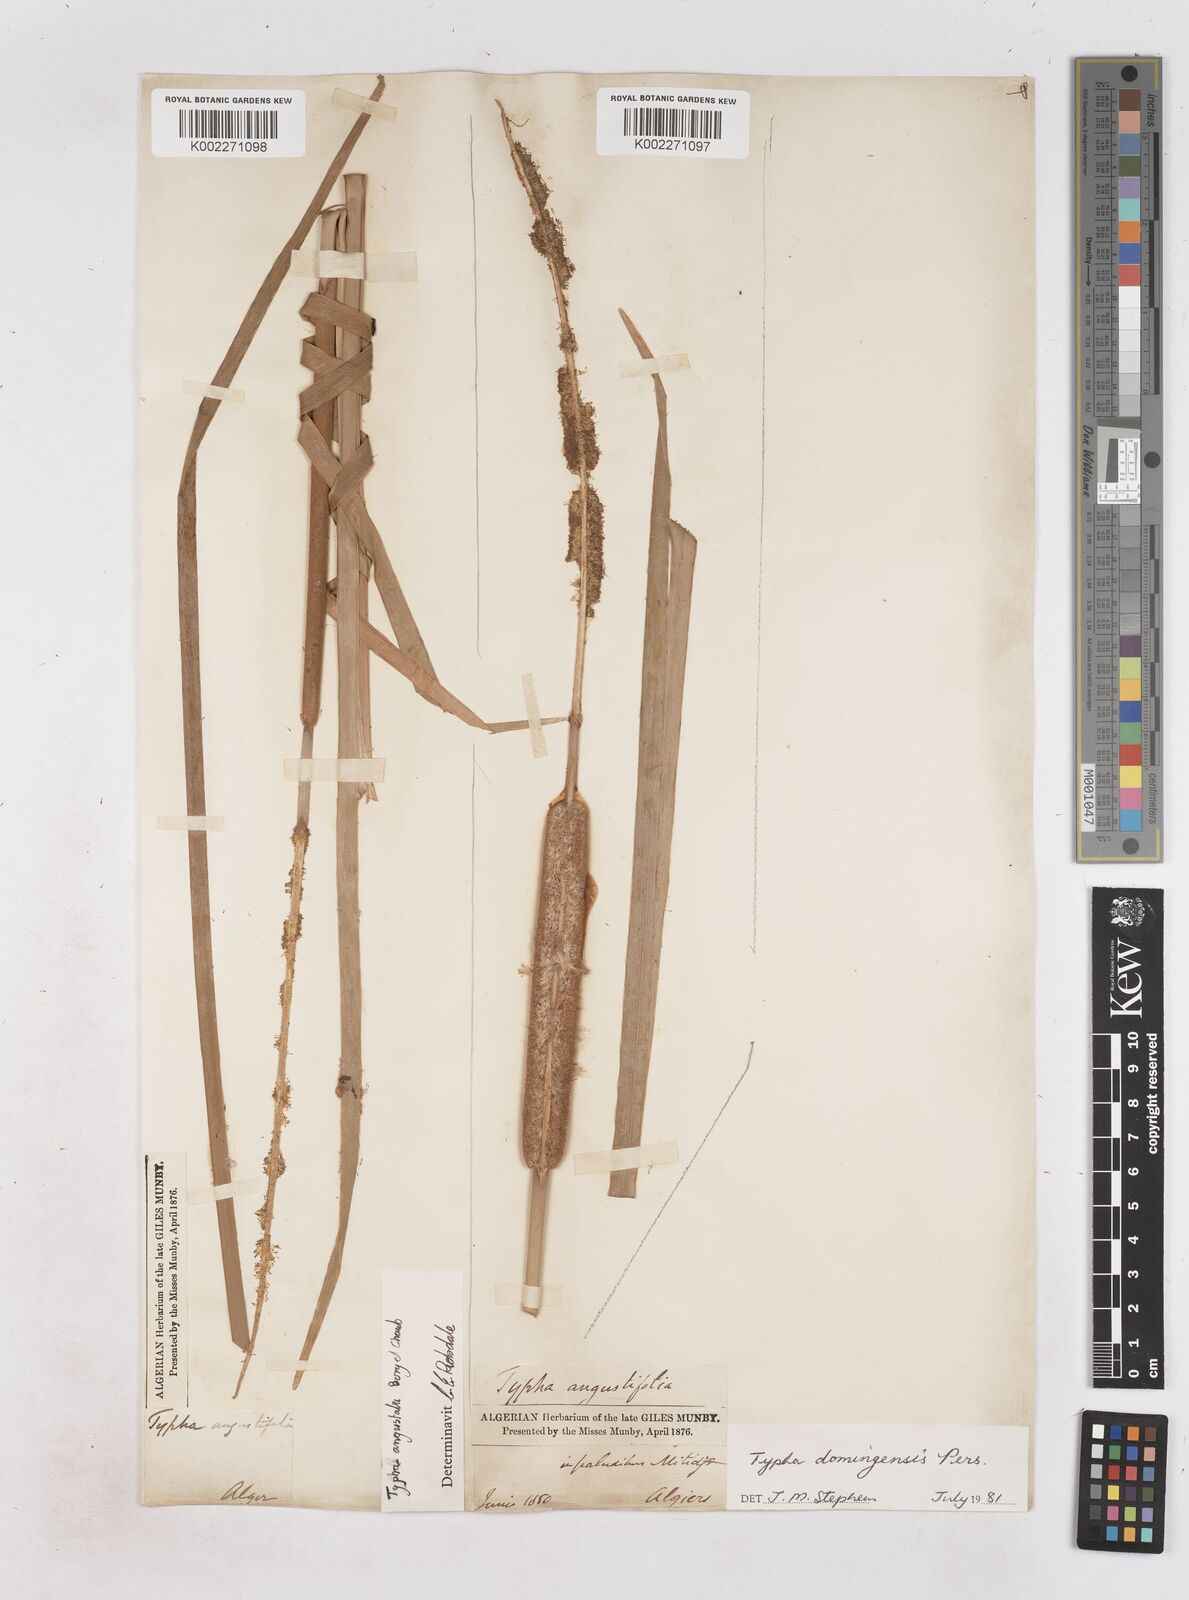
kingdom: Plantae
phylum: Tracheophyta
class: Liliopsida
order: Poales
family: Typhaceae
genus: Typha
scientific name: Typha domingensis
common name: Southern cattail
